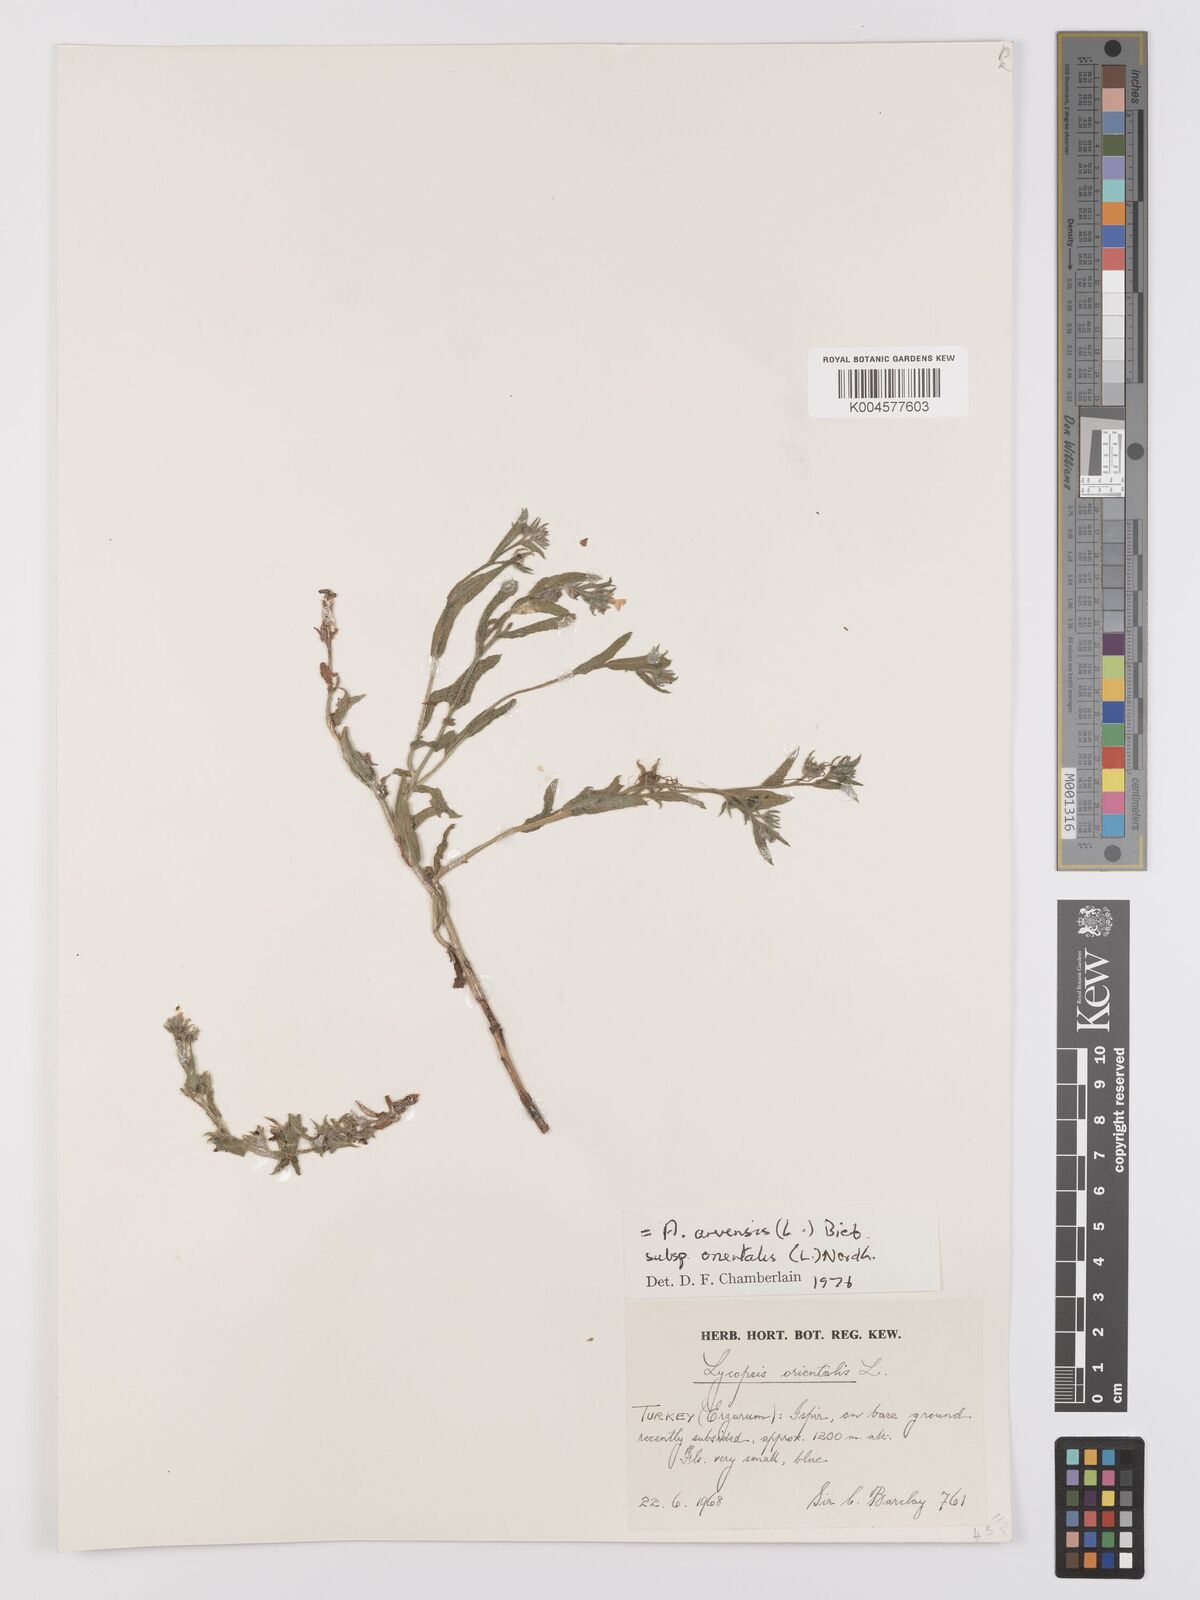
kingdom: Plantae
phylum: Tracheophyta
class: Magnoliopsida
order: Boraginales
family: Boraginaceae
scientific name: Boraginaceae
